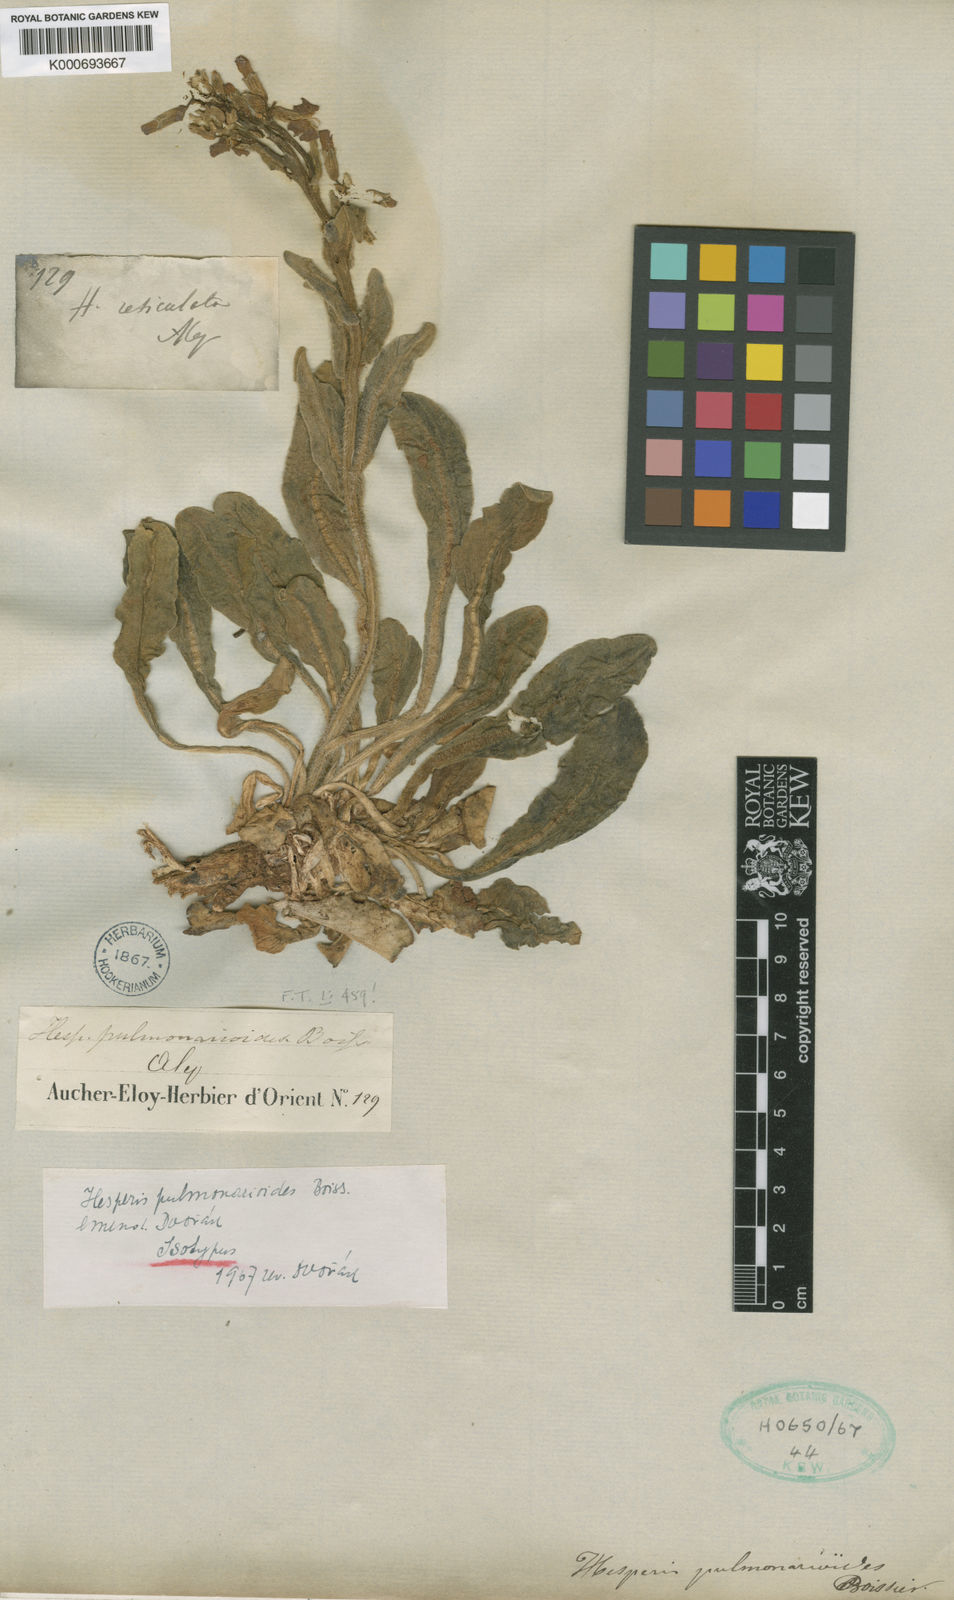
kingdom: Plantae
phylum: Tracheophyta
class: Magnoliopsida
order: Brassicales
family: Brassicaceae
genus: Hesperis
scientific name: Hesperis syriaca
